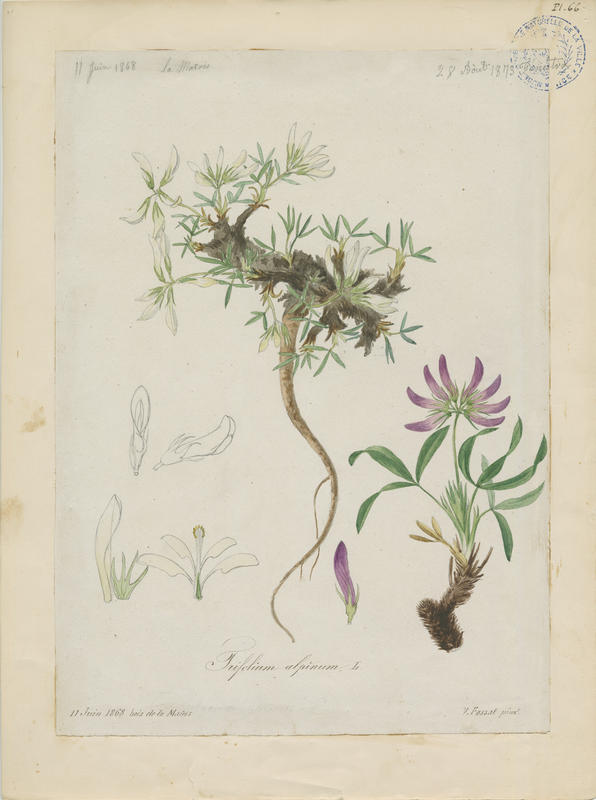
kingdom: Plantae
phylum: Tracheophyta
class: Magnoliopsida
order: Fabales
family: Fabaceae
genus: Trifolium
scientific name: Trifolium alpinum
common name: Alpine clover
